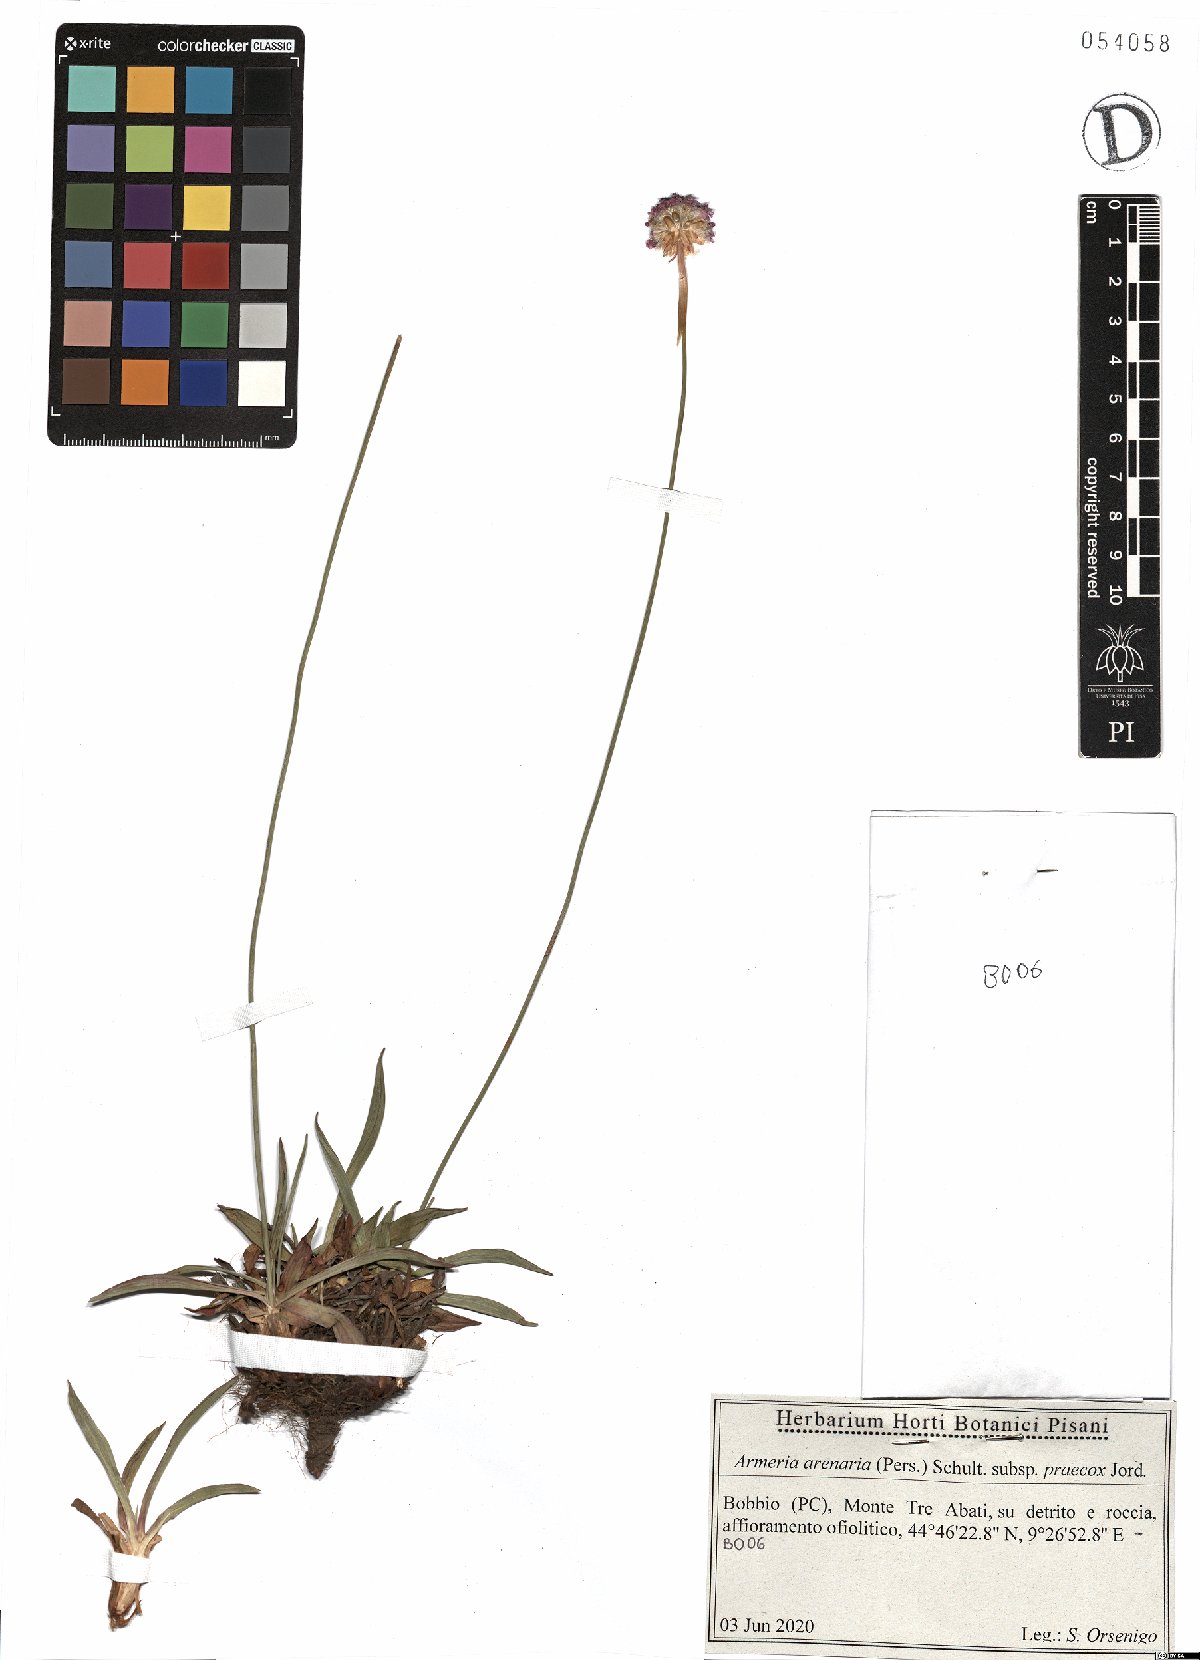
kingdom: Plantae
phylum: Tracheophyta
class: Magnoliopsida
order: Caryophyllales
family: Plumbaginaceae
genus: Armeria
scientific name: Armeria arenaria
